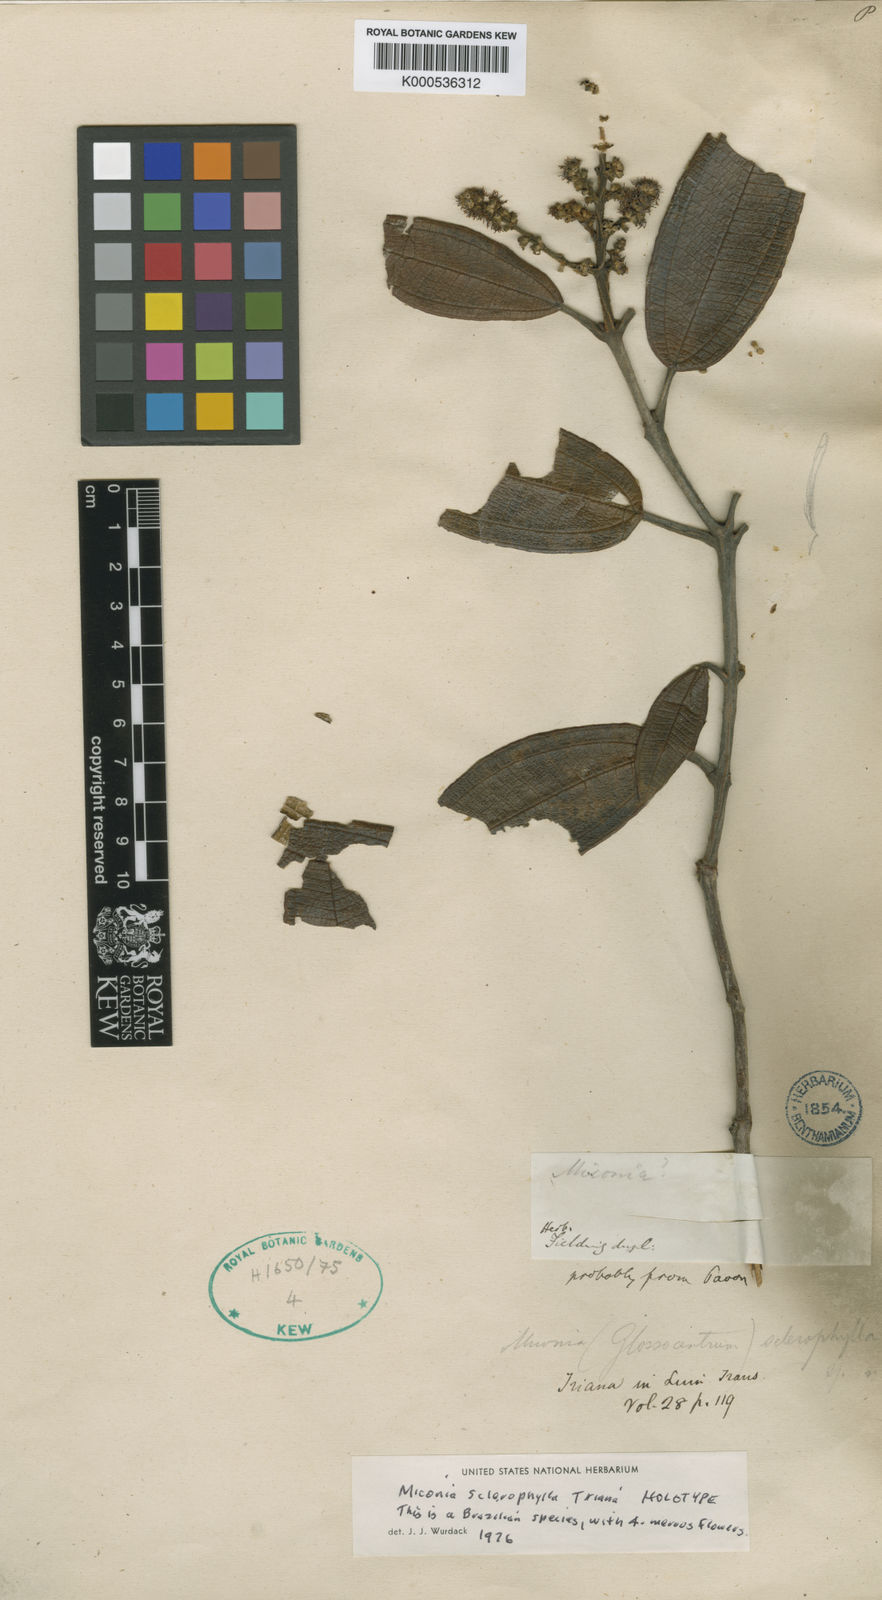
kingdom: Plantae
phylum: Tracheophyta
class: Magnoliopsida
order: Myrtales
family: Melastomataceae
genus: Miconia
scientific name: Miconia sclerophylla
